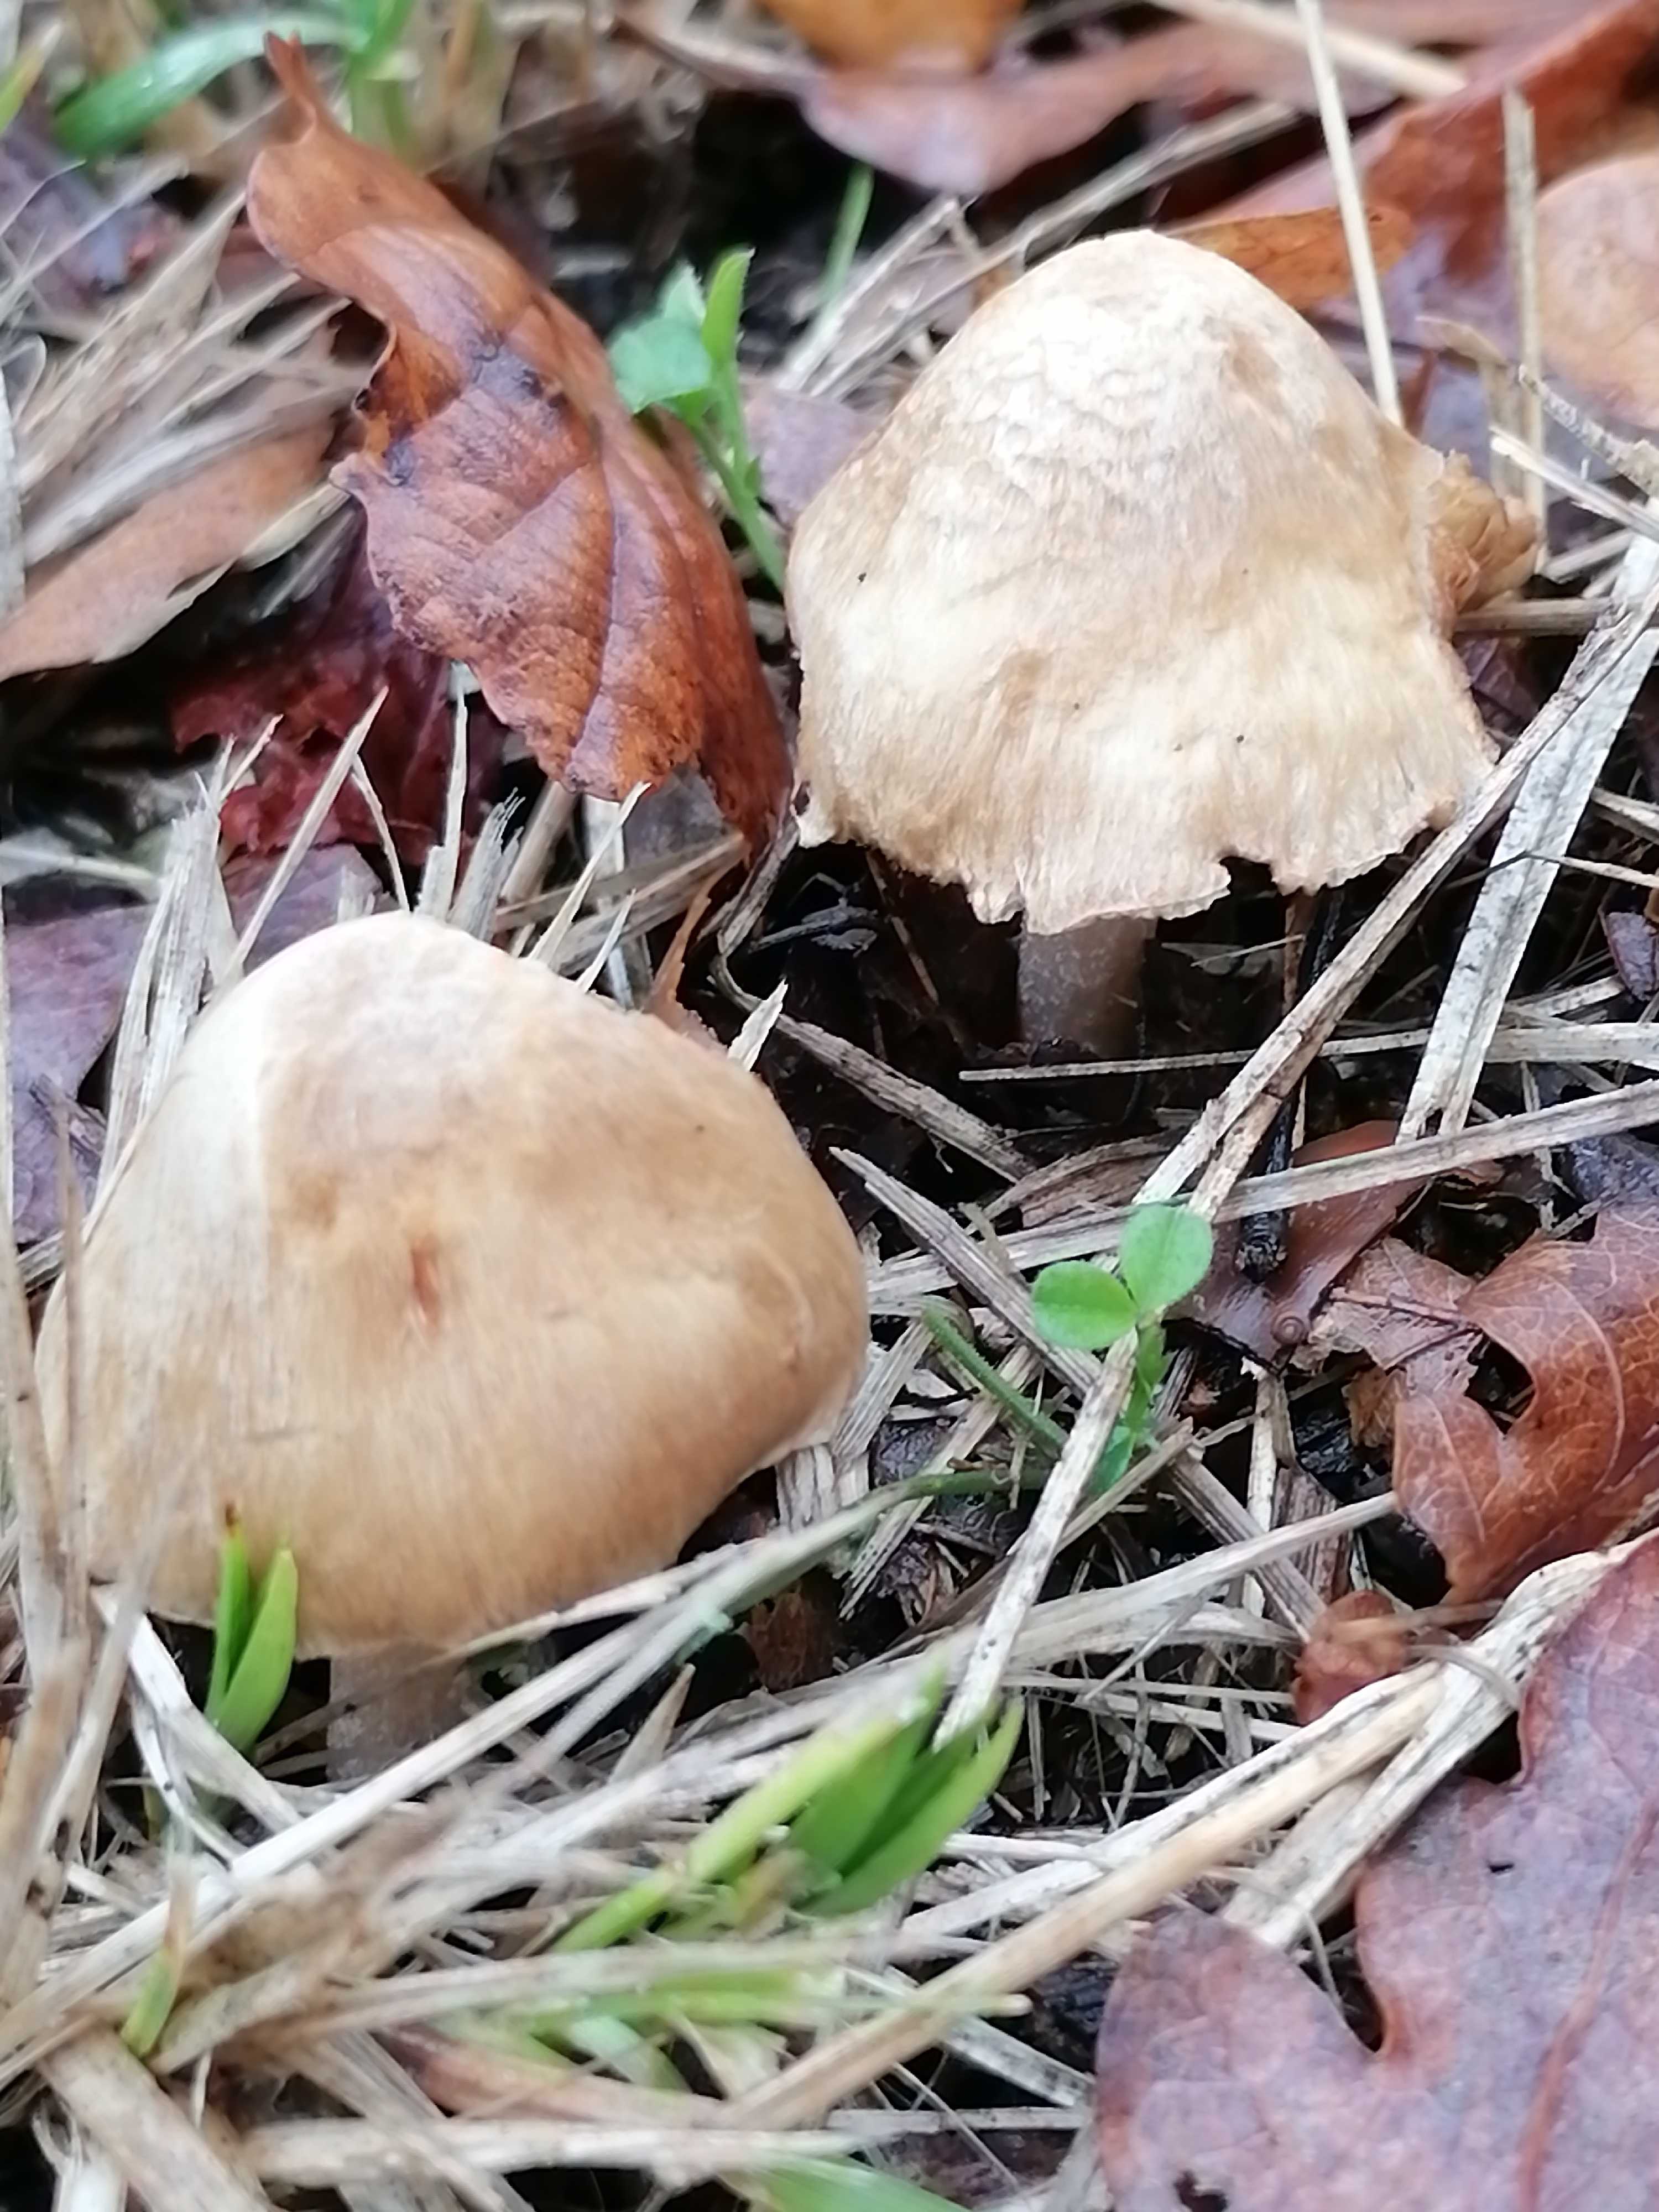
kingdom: Fungi
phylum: Basidiomycota
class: Agaricomycetes
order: Agaricales
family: Inocybaceae
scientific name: Inocybaceae
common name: trævlhatfamilien
